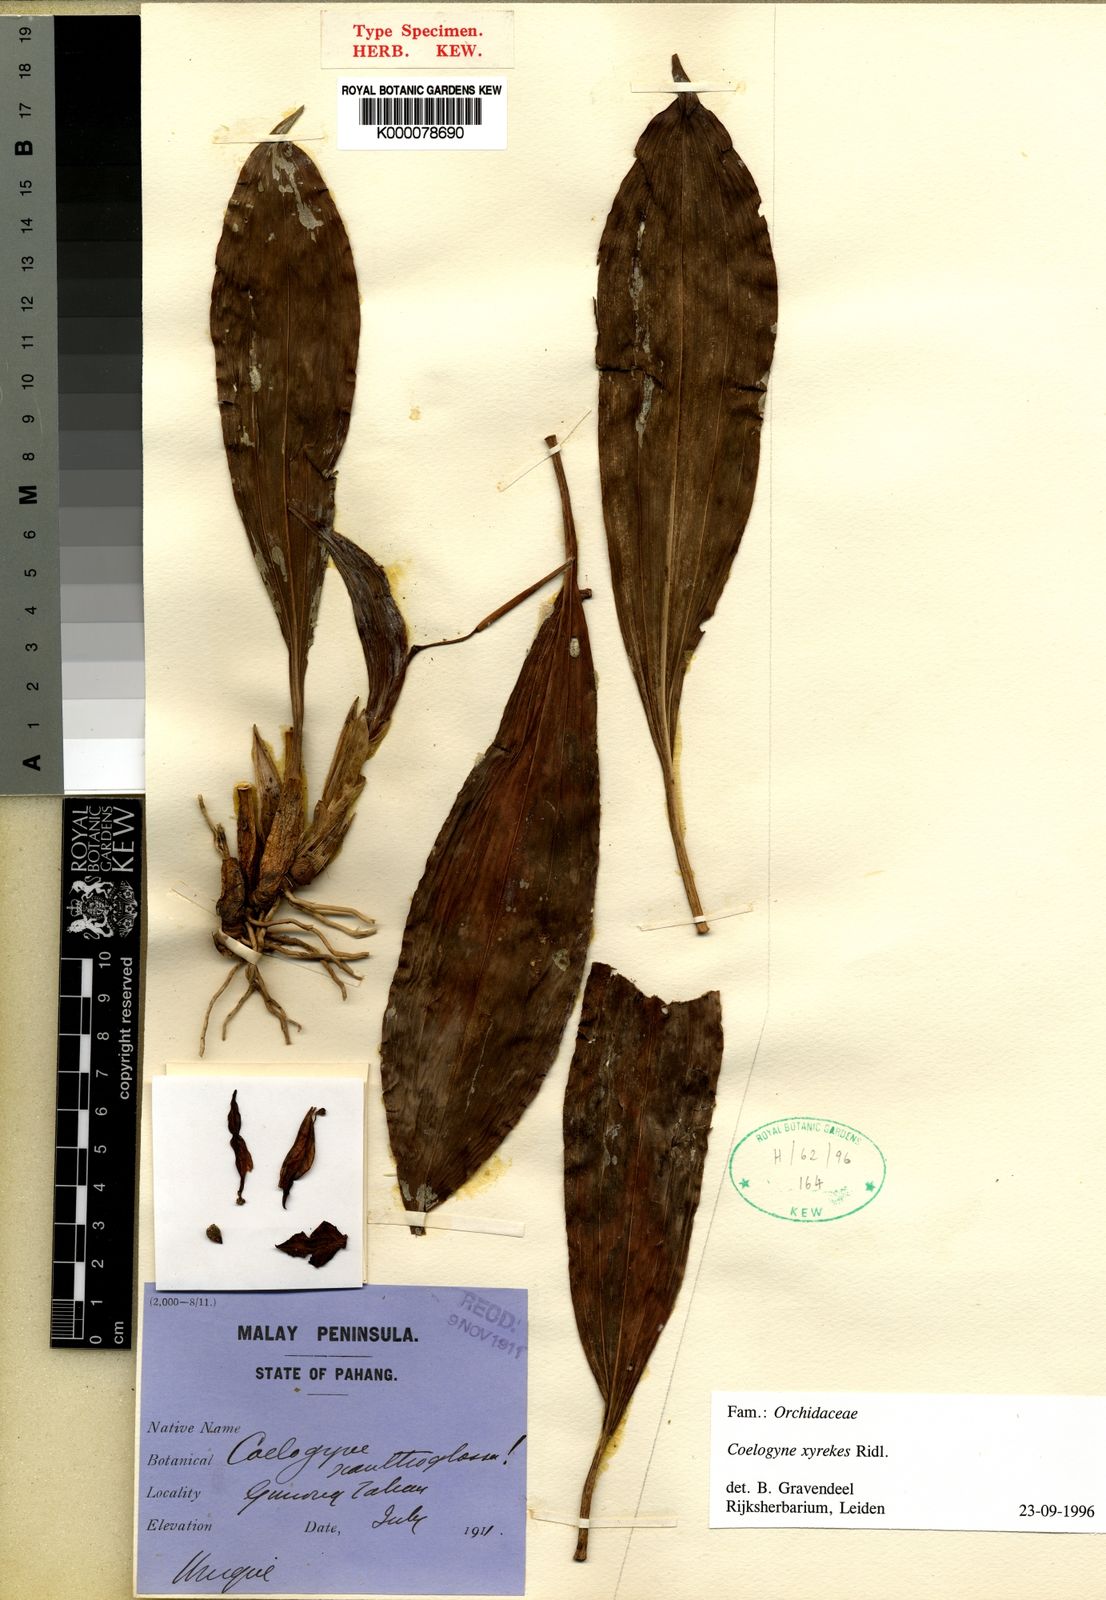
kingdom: Plantae
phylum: Tracheophyta
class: Liliopsida
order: Asparagales
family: Orchidaceae
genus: Coelogyne
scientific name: Coelogyne xyrekes
